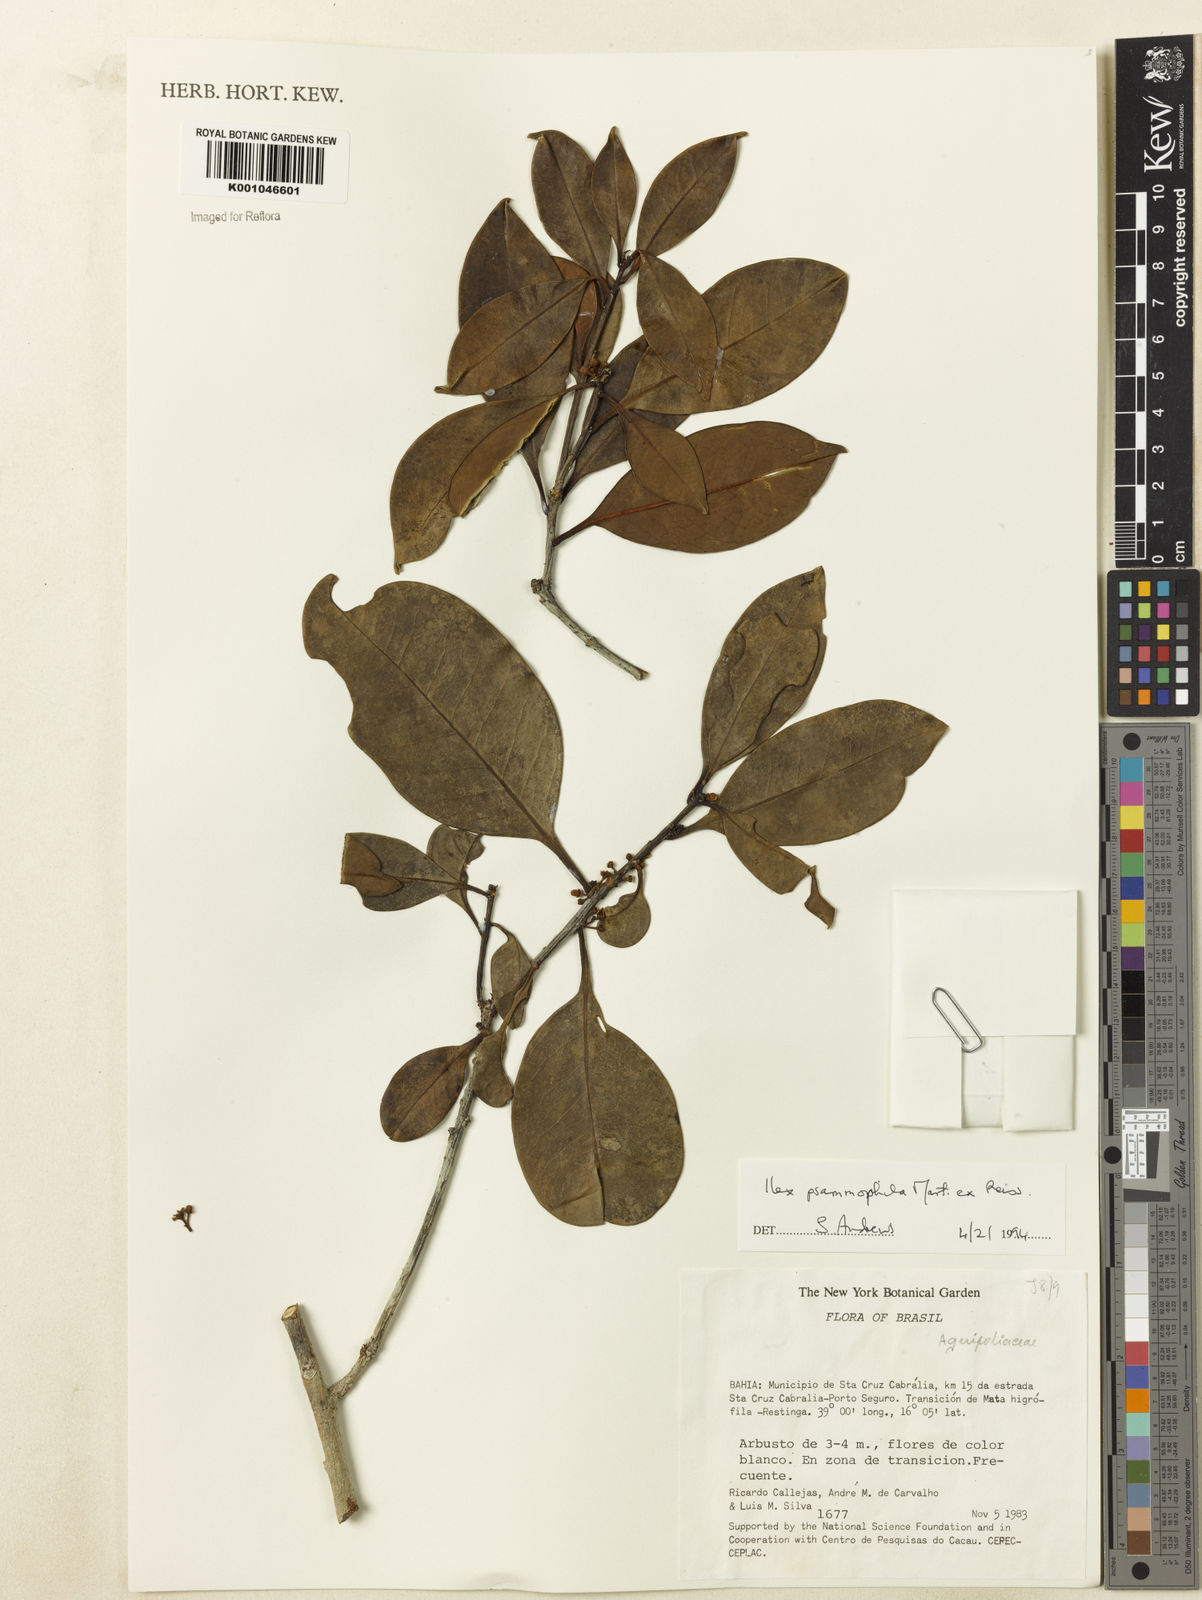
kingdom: Plantae
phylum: Tracheophyta
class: Magnoliopsida
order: Aquifoliales
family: Aquifoliaceae
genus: Ilex
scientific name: Ilex psammophila
